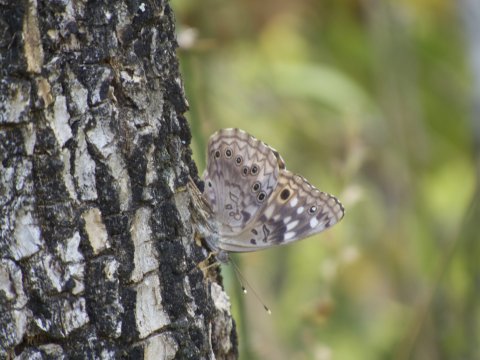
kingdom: Animalia
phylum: Arthropoda
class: Insecta
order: Lepidoptera
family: Nymphalidae
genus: Asterocampa
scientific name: Asterocampa celtis
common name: Hackberry Emperor
